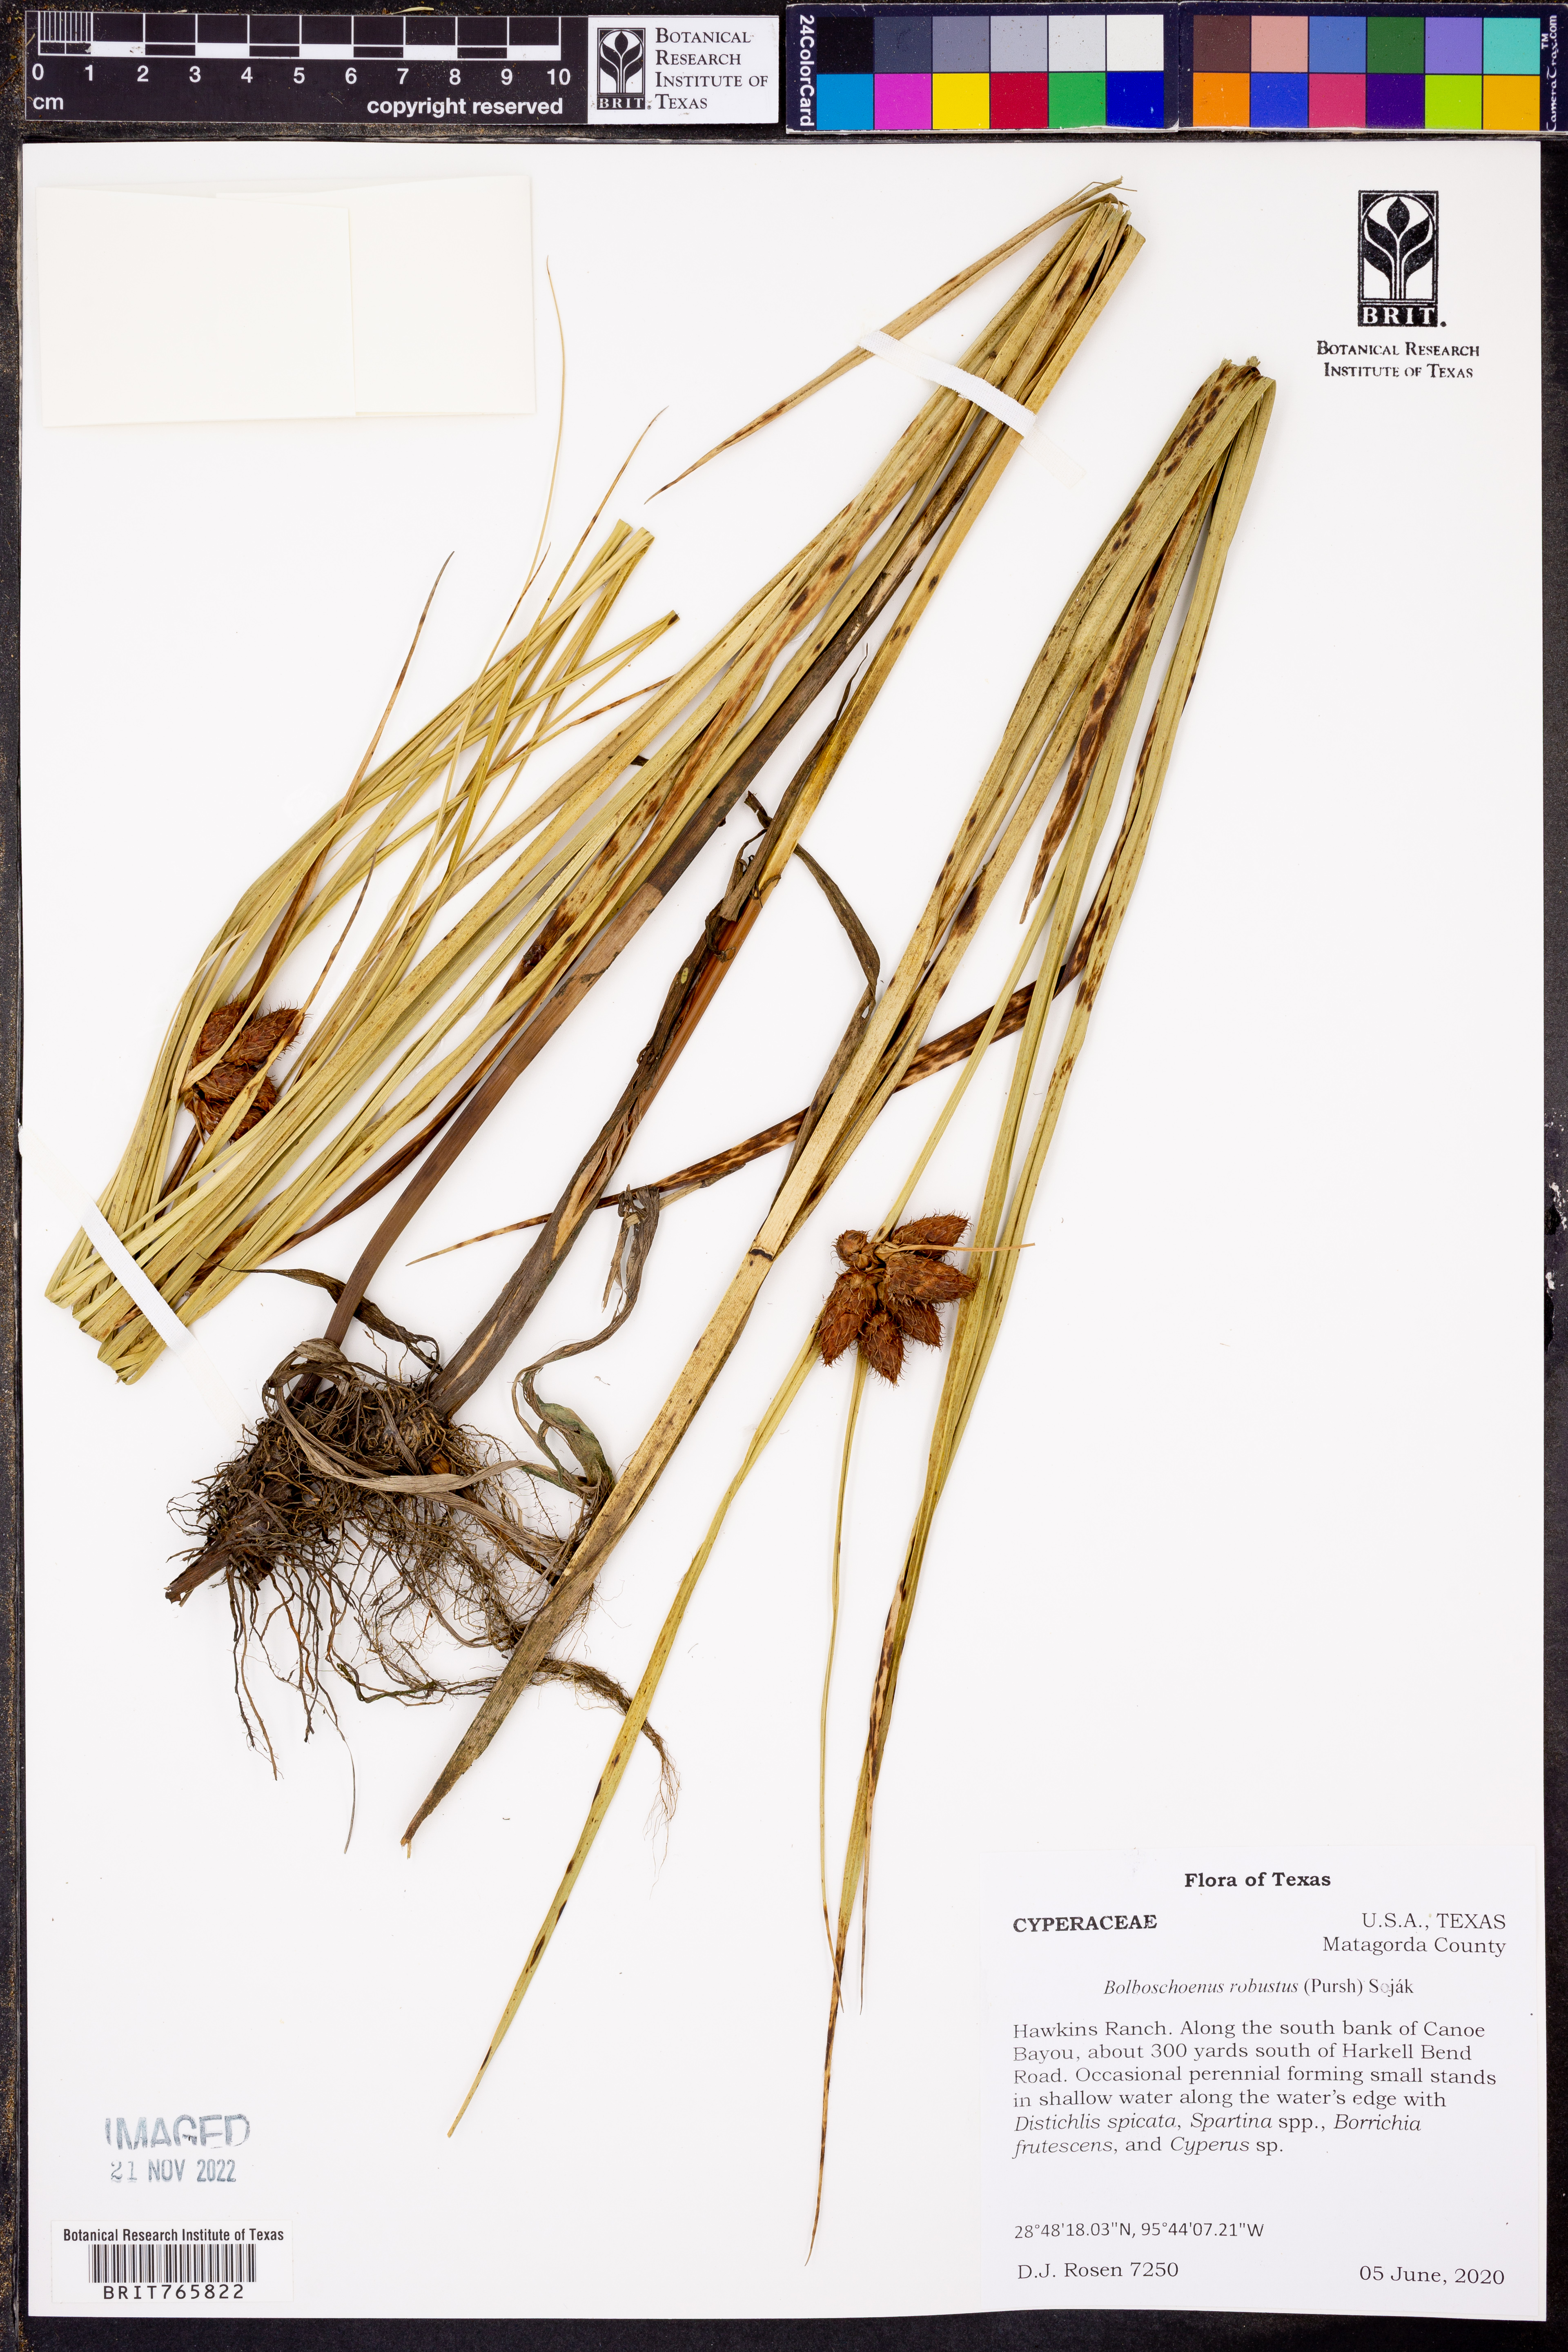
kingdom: Plantae
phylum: Tracheophyta
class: Liliopsida
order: Poales
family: Cyperaceae
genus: Bolboschoenus
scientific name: Bolboschoenus robustus
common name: Seacoast bulrush
